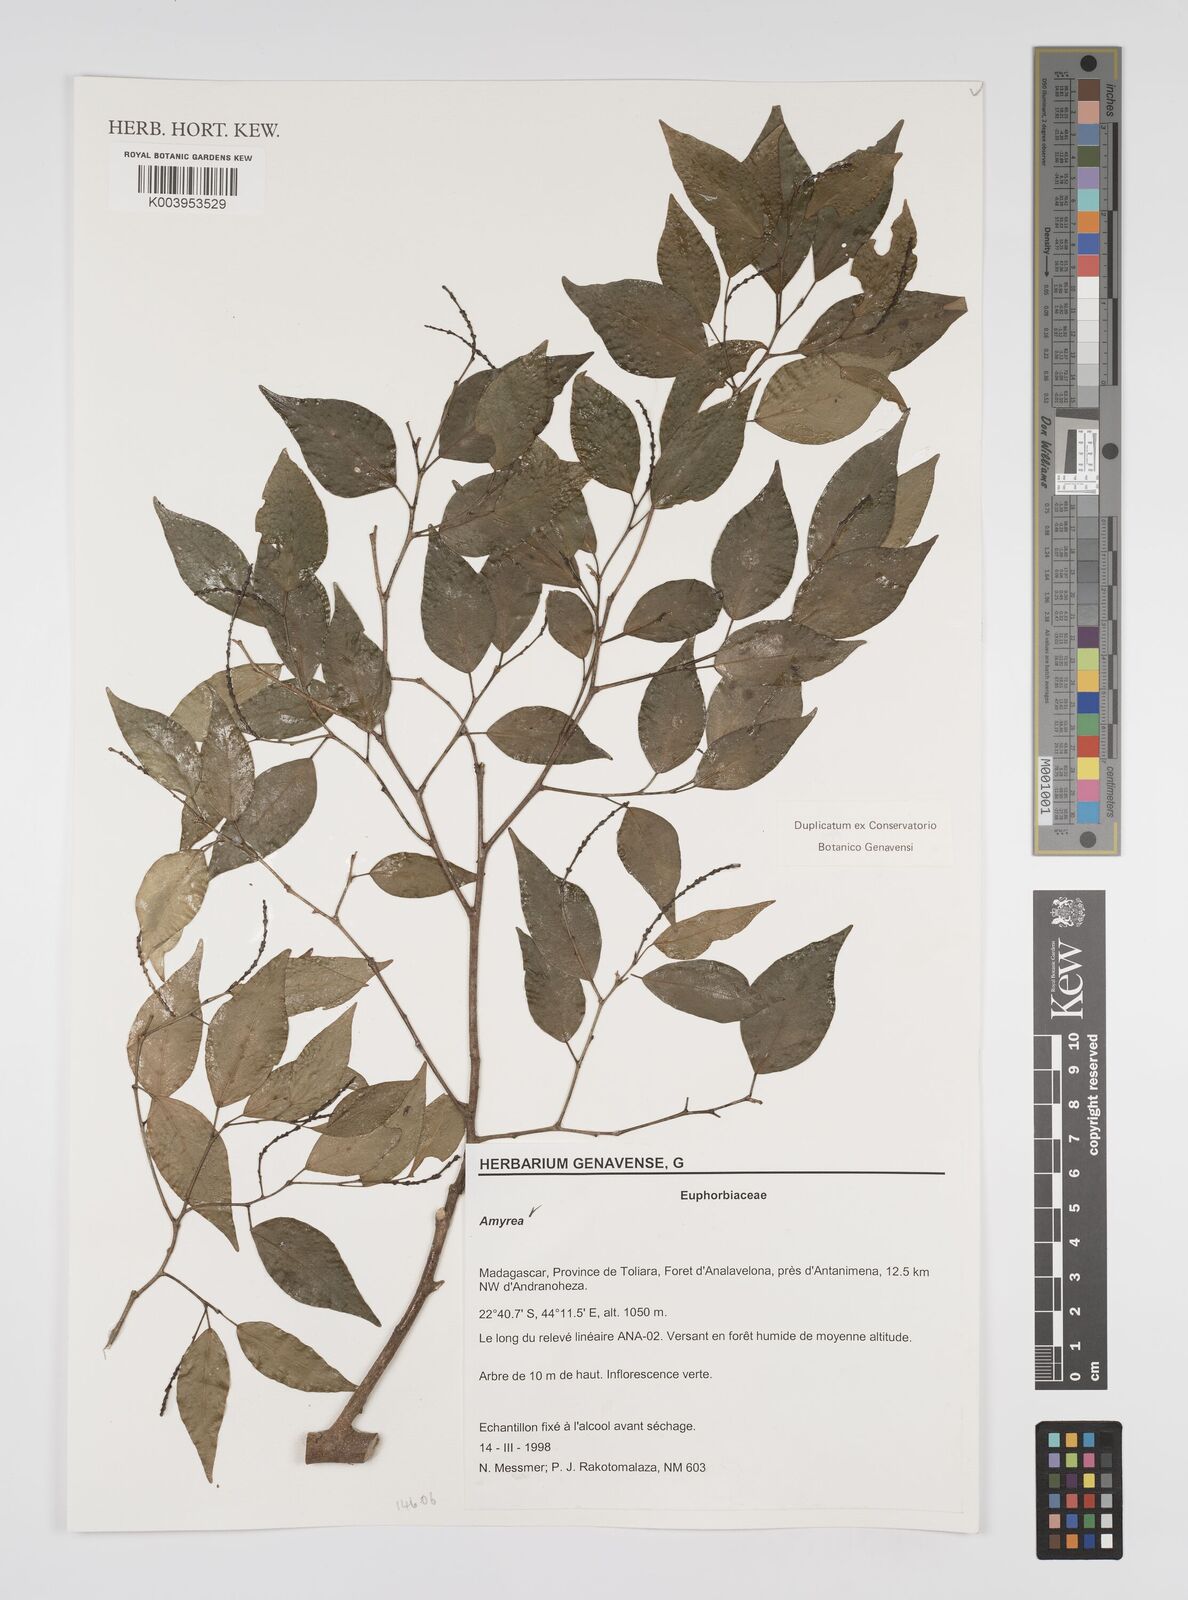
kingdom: Plantae
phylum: Tracheophyta
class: Magnoliopsida
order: Malpighiales
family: Euphorbiaceae
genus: Amyrea
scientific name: Amyrea
